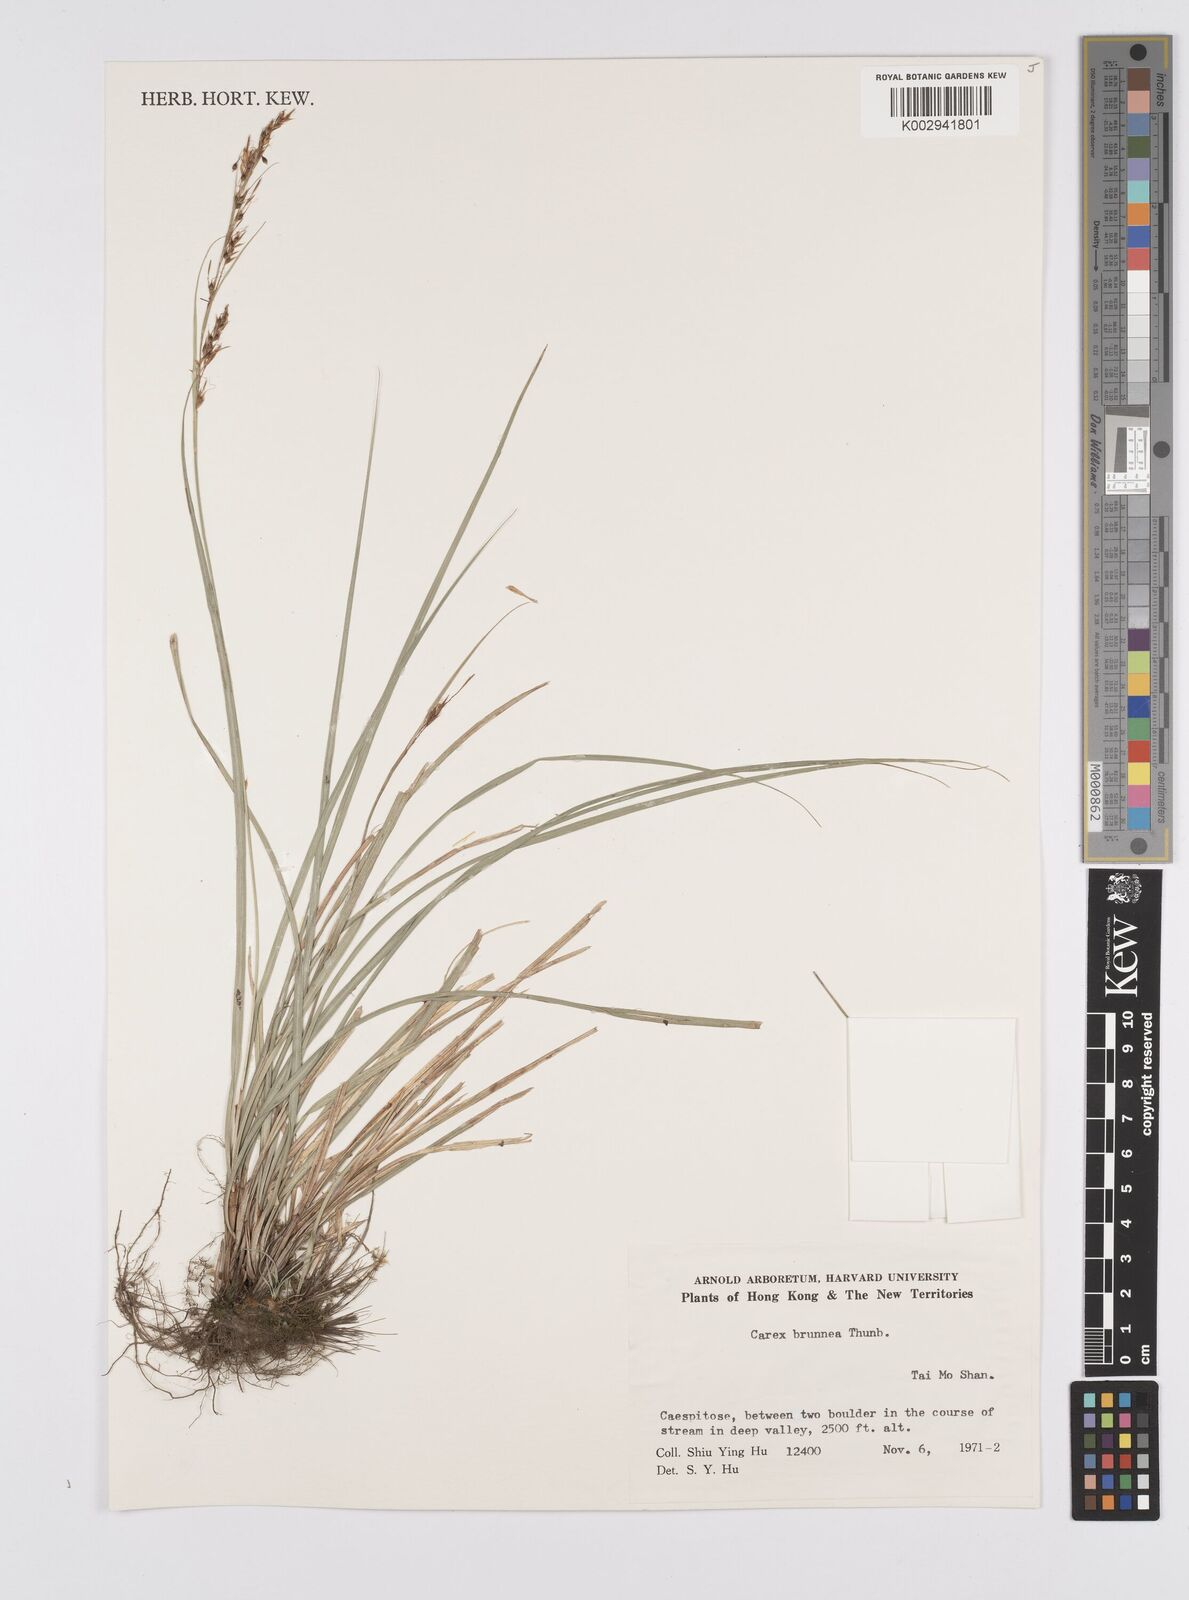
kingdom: Plantae
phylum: Tracheophyta
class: Liliopsida
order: Poales
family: Cyperaceae
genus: Carex
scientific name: Carex brunnea
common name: Greater brown sedge
